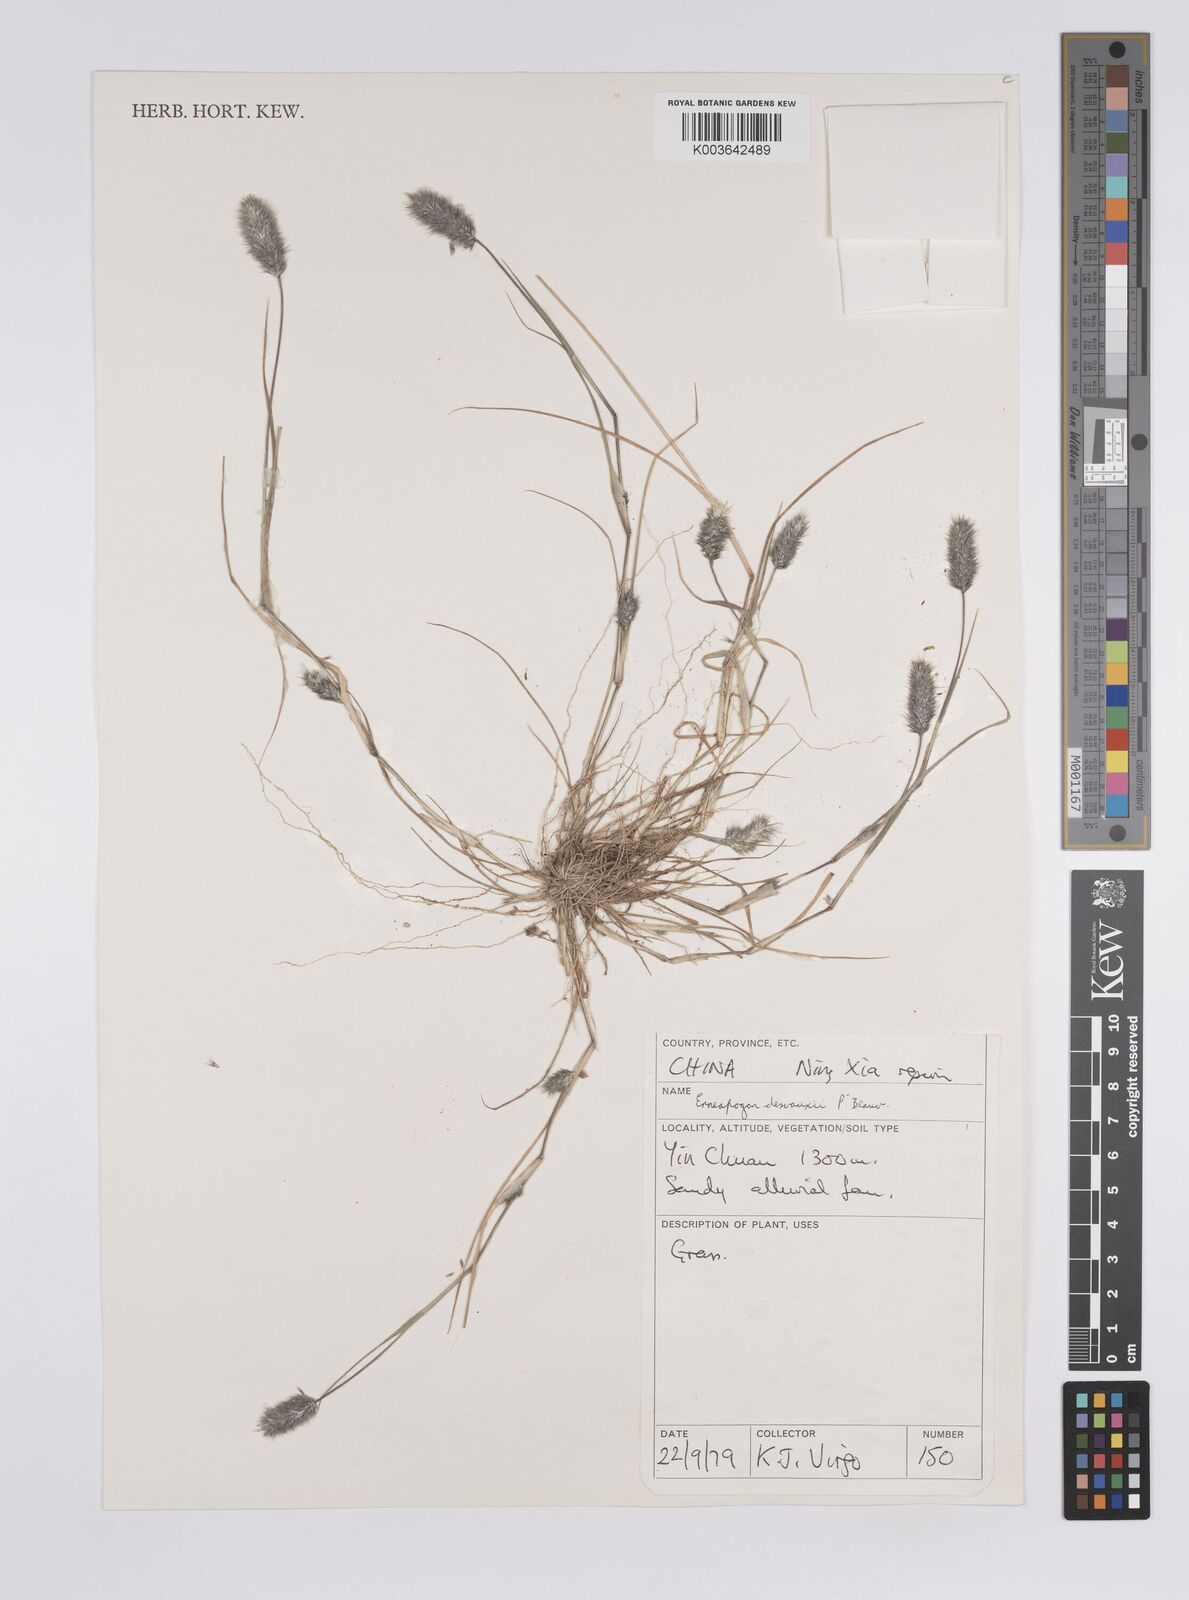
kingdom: Plantae
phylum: Tracheophyta
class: Liliopsida
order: Poales
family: Poaceae
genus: Enneapogon
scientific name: Enneapogon desvauxii
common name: Feather pappus grass
